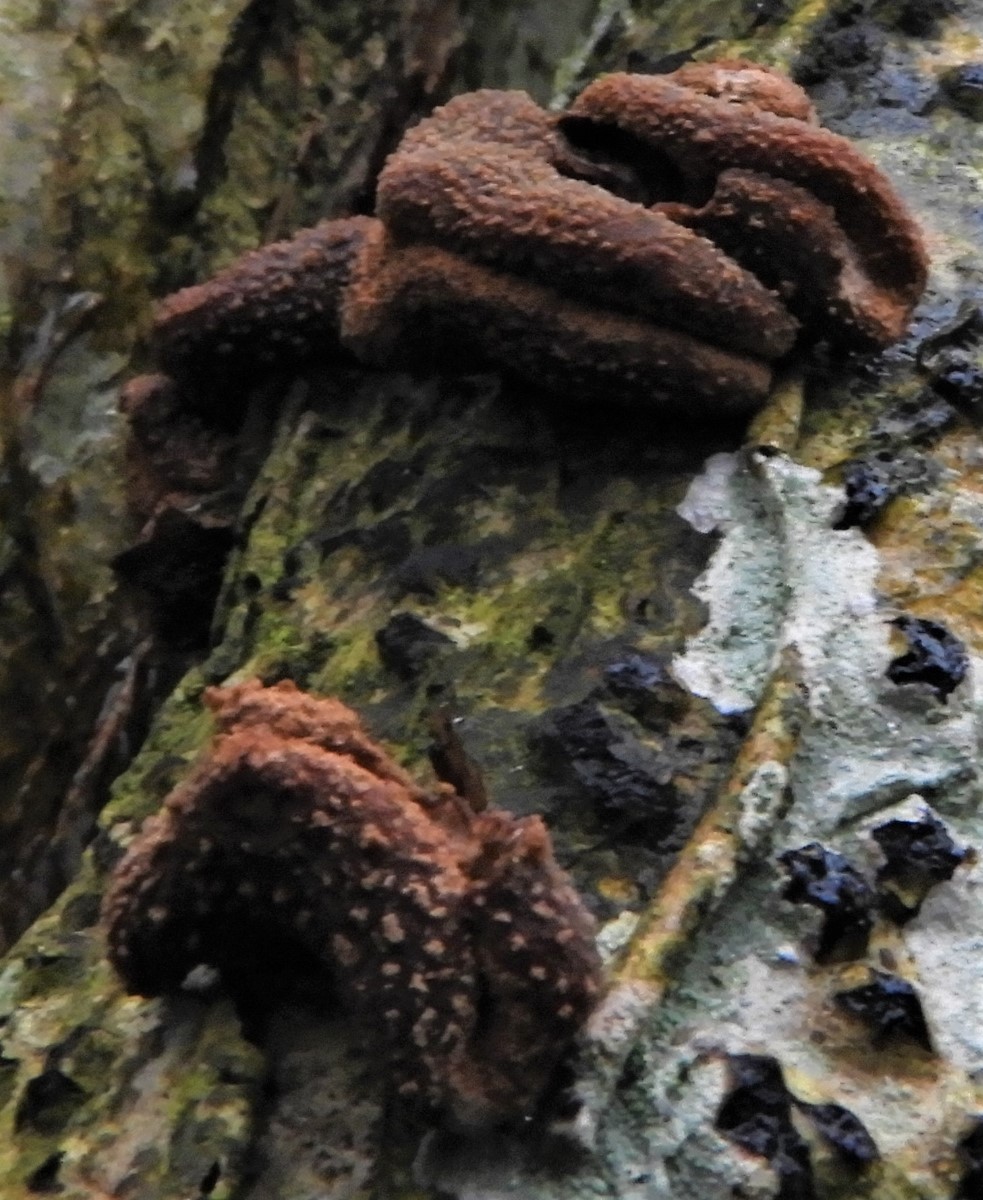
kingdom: Fungi
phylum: Ascomycota
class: Leotiomycetes
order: Helotiales
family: Cenangiaceae
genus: Encoelia
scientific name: Encoelia furfuracea
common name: hassel-læderskive
